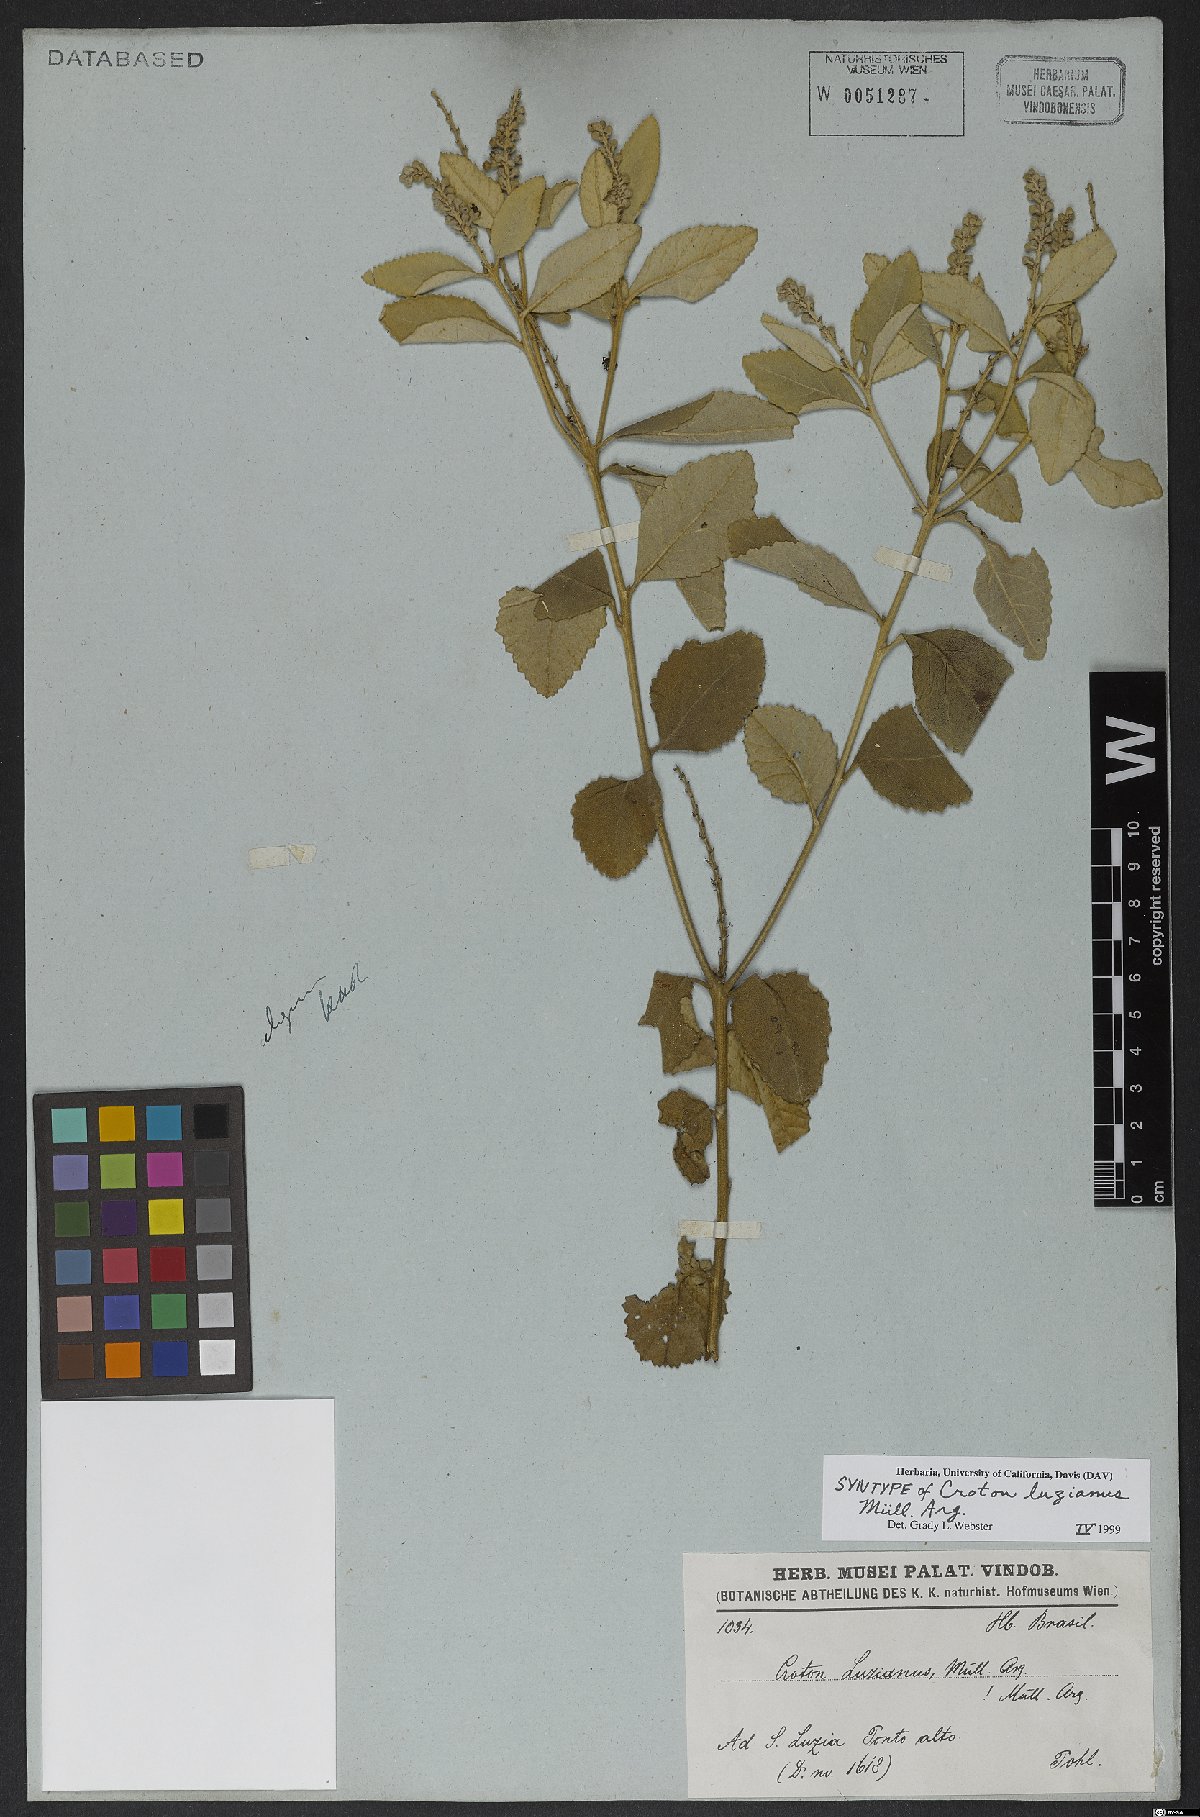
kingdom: Plantae
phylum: Tracheophyta
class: Magnoliopsida
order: Malpighiales
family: Euphorbiaceae
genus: Croton
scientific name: Croton goyazensis
